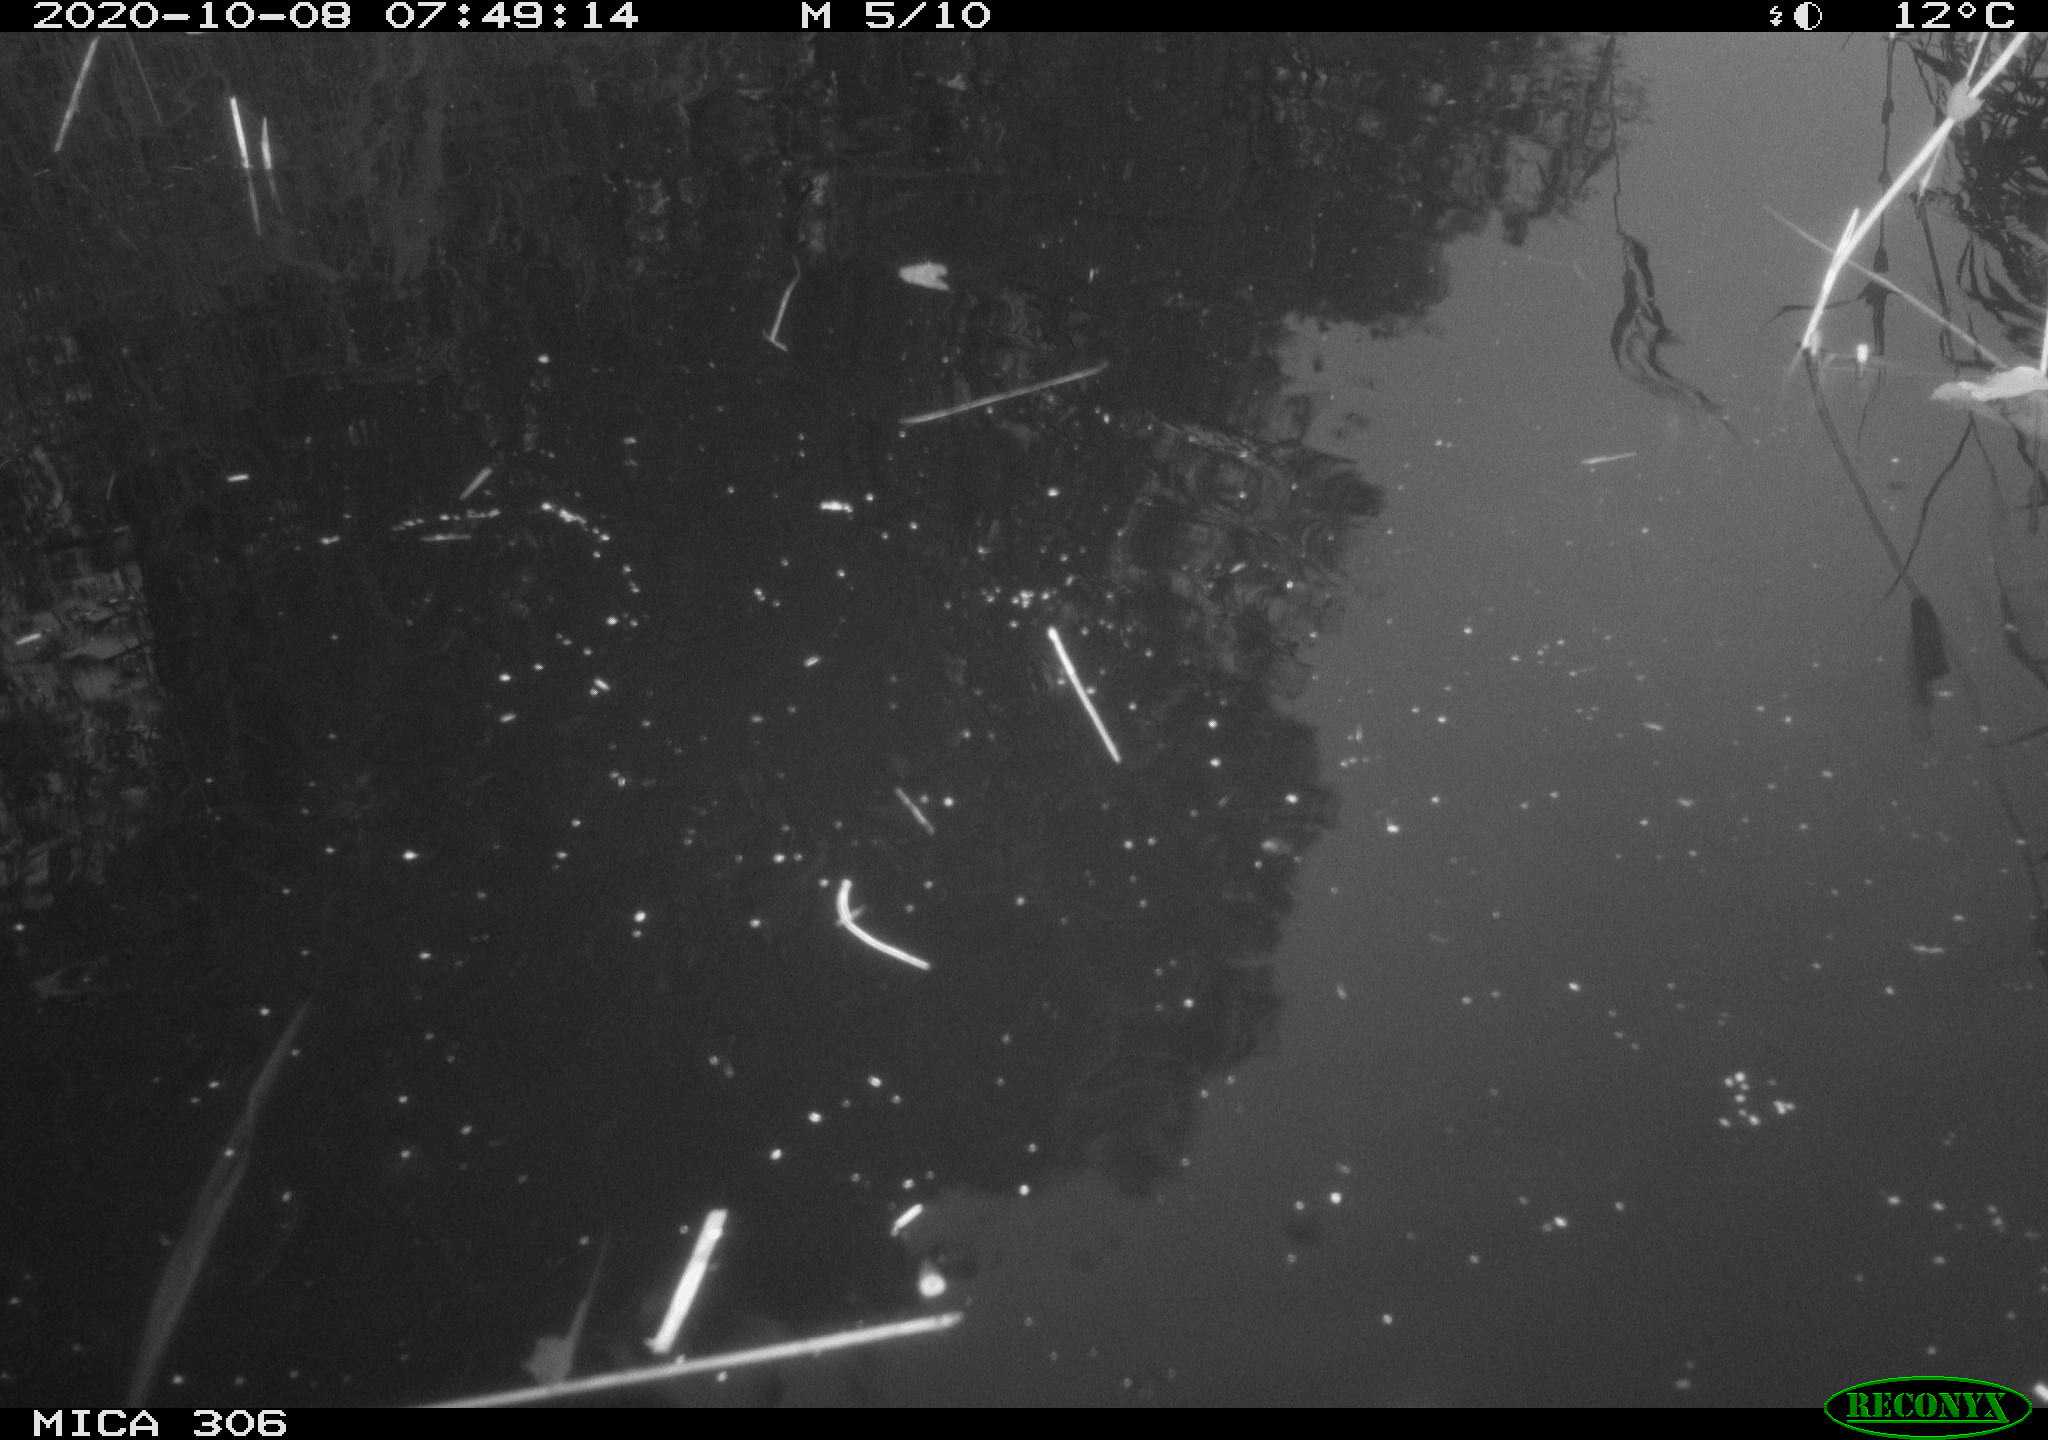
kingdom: Animalia
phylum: Chordata
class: Aves
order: Gruiformes
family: Rallidae
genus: Gallinula
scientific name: Gallinula chloropus
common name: Common moorhen
